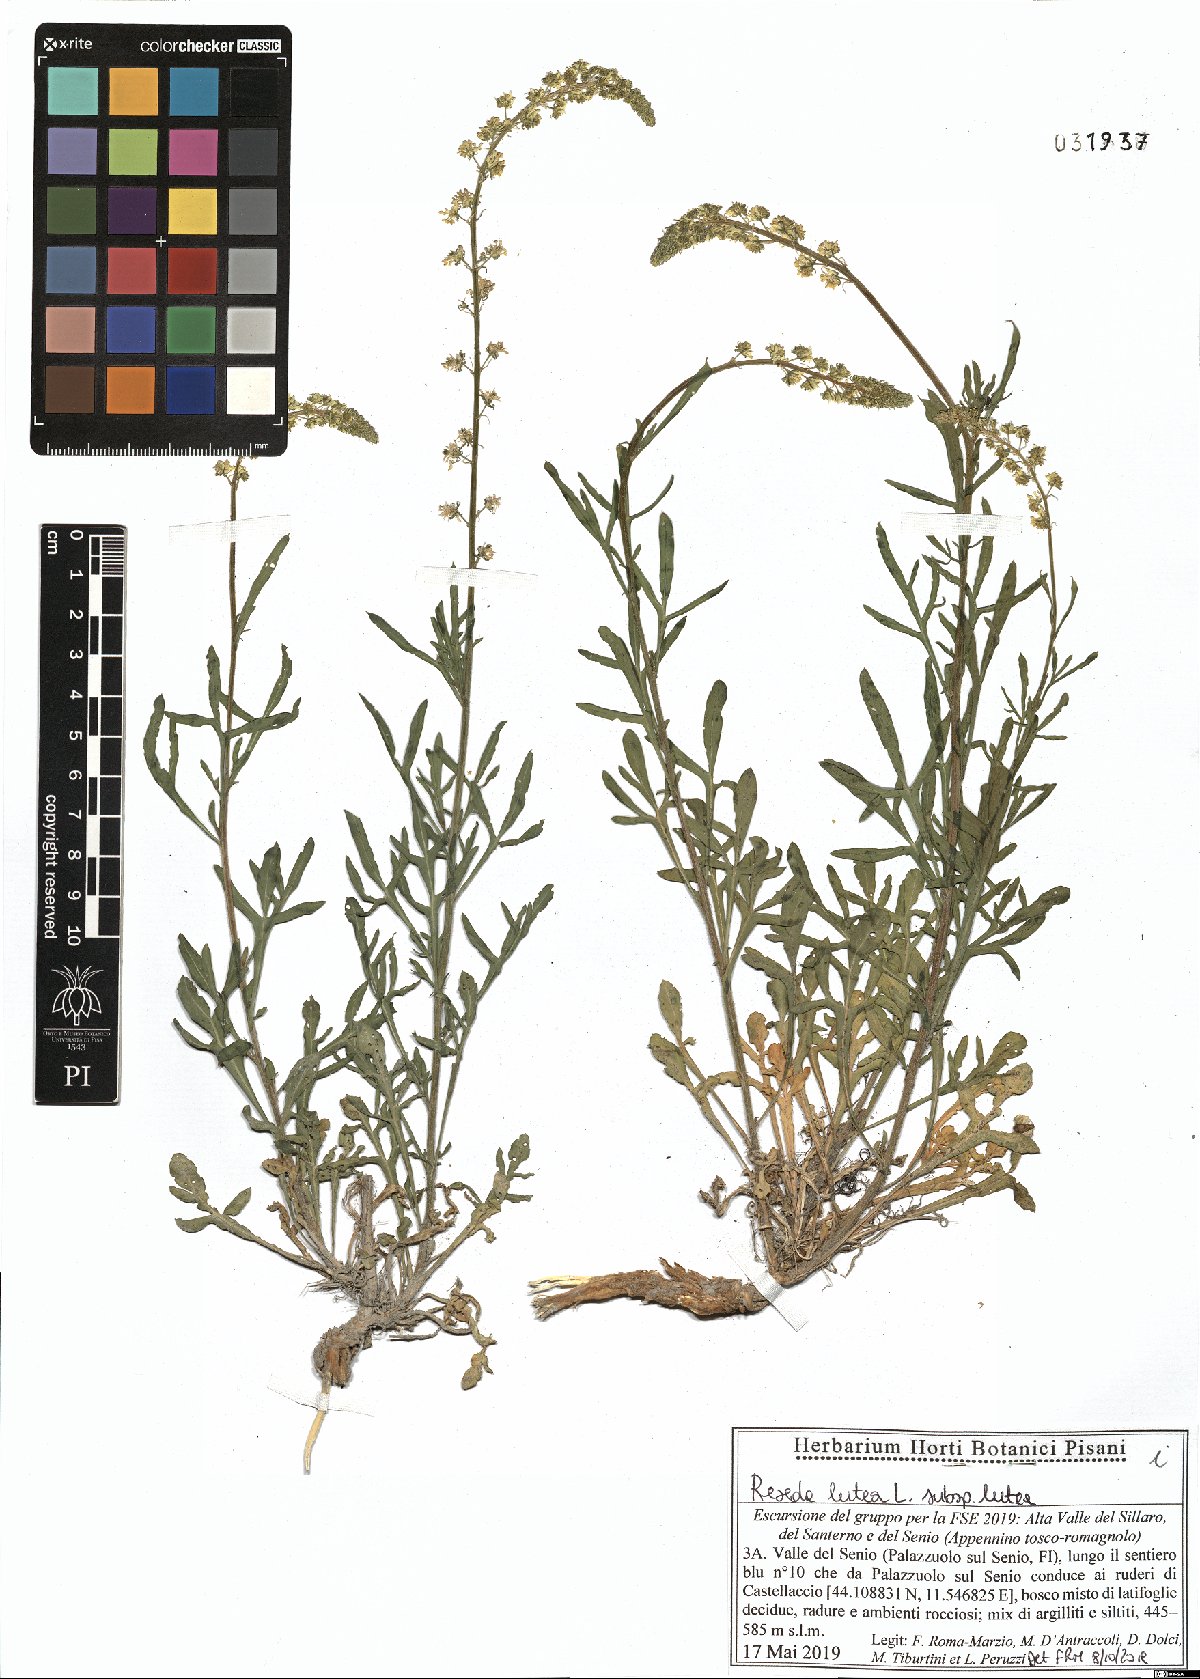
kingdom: Plantae
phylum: Tracheophyta
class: Magnoliopsida
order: Brassicales
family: Resedaceae
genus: Reseda
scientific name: Reseda lutea
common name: Wild mignonette
